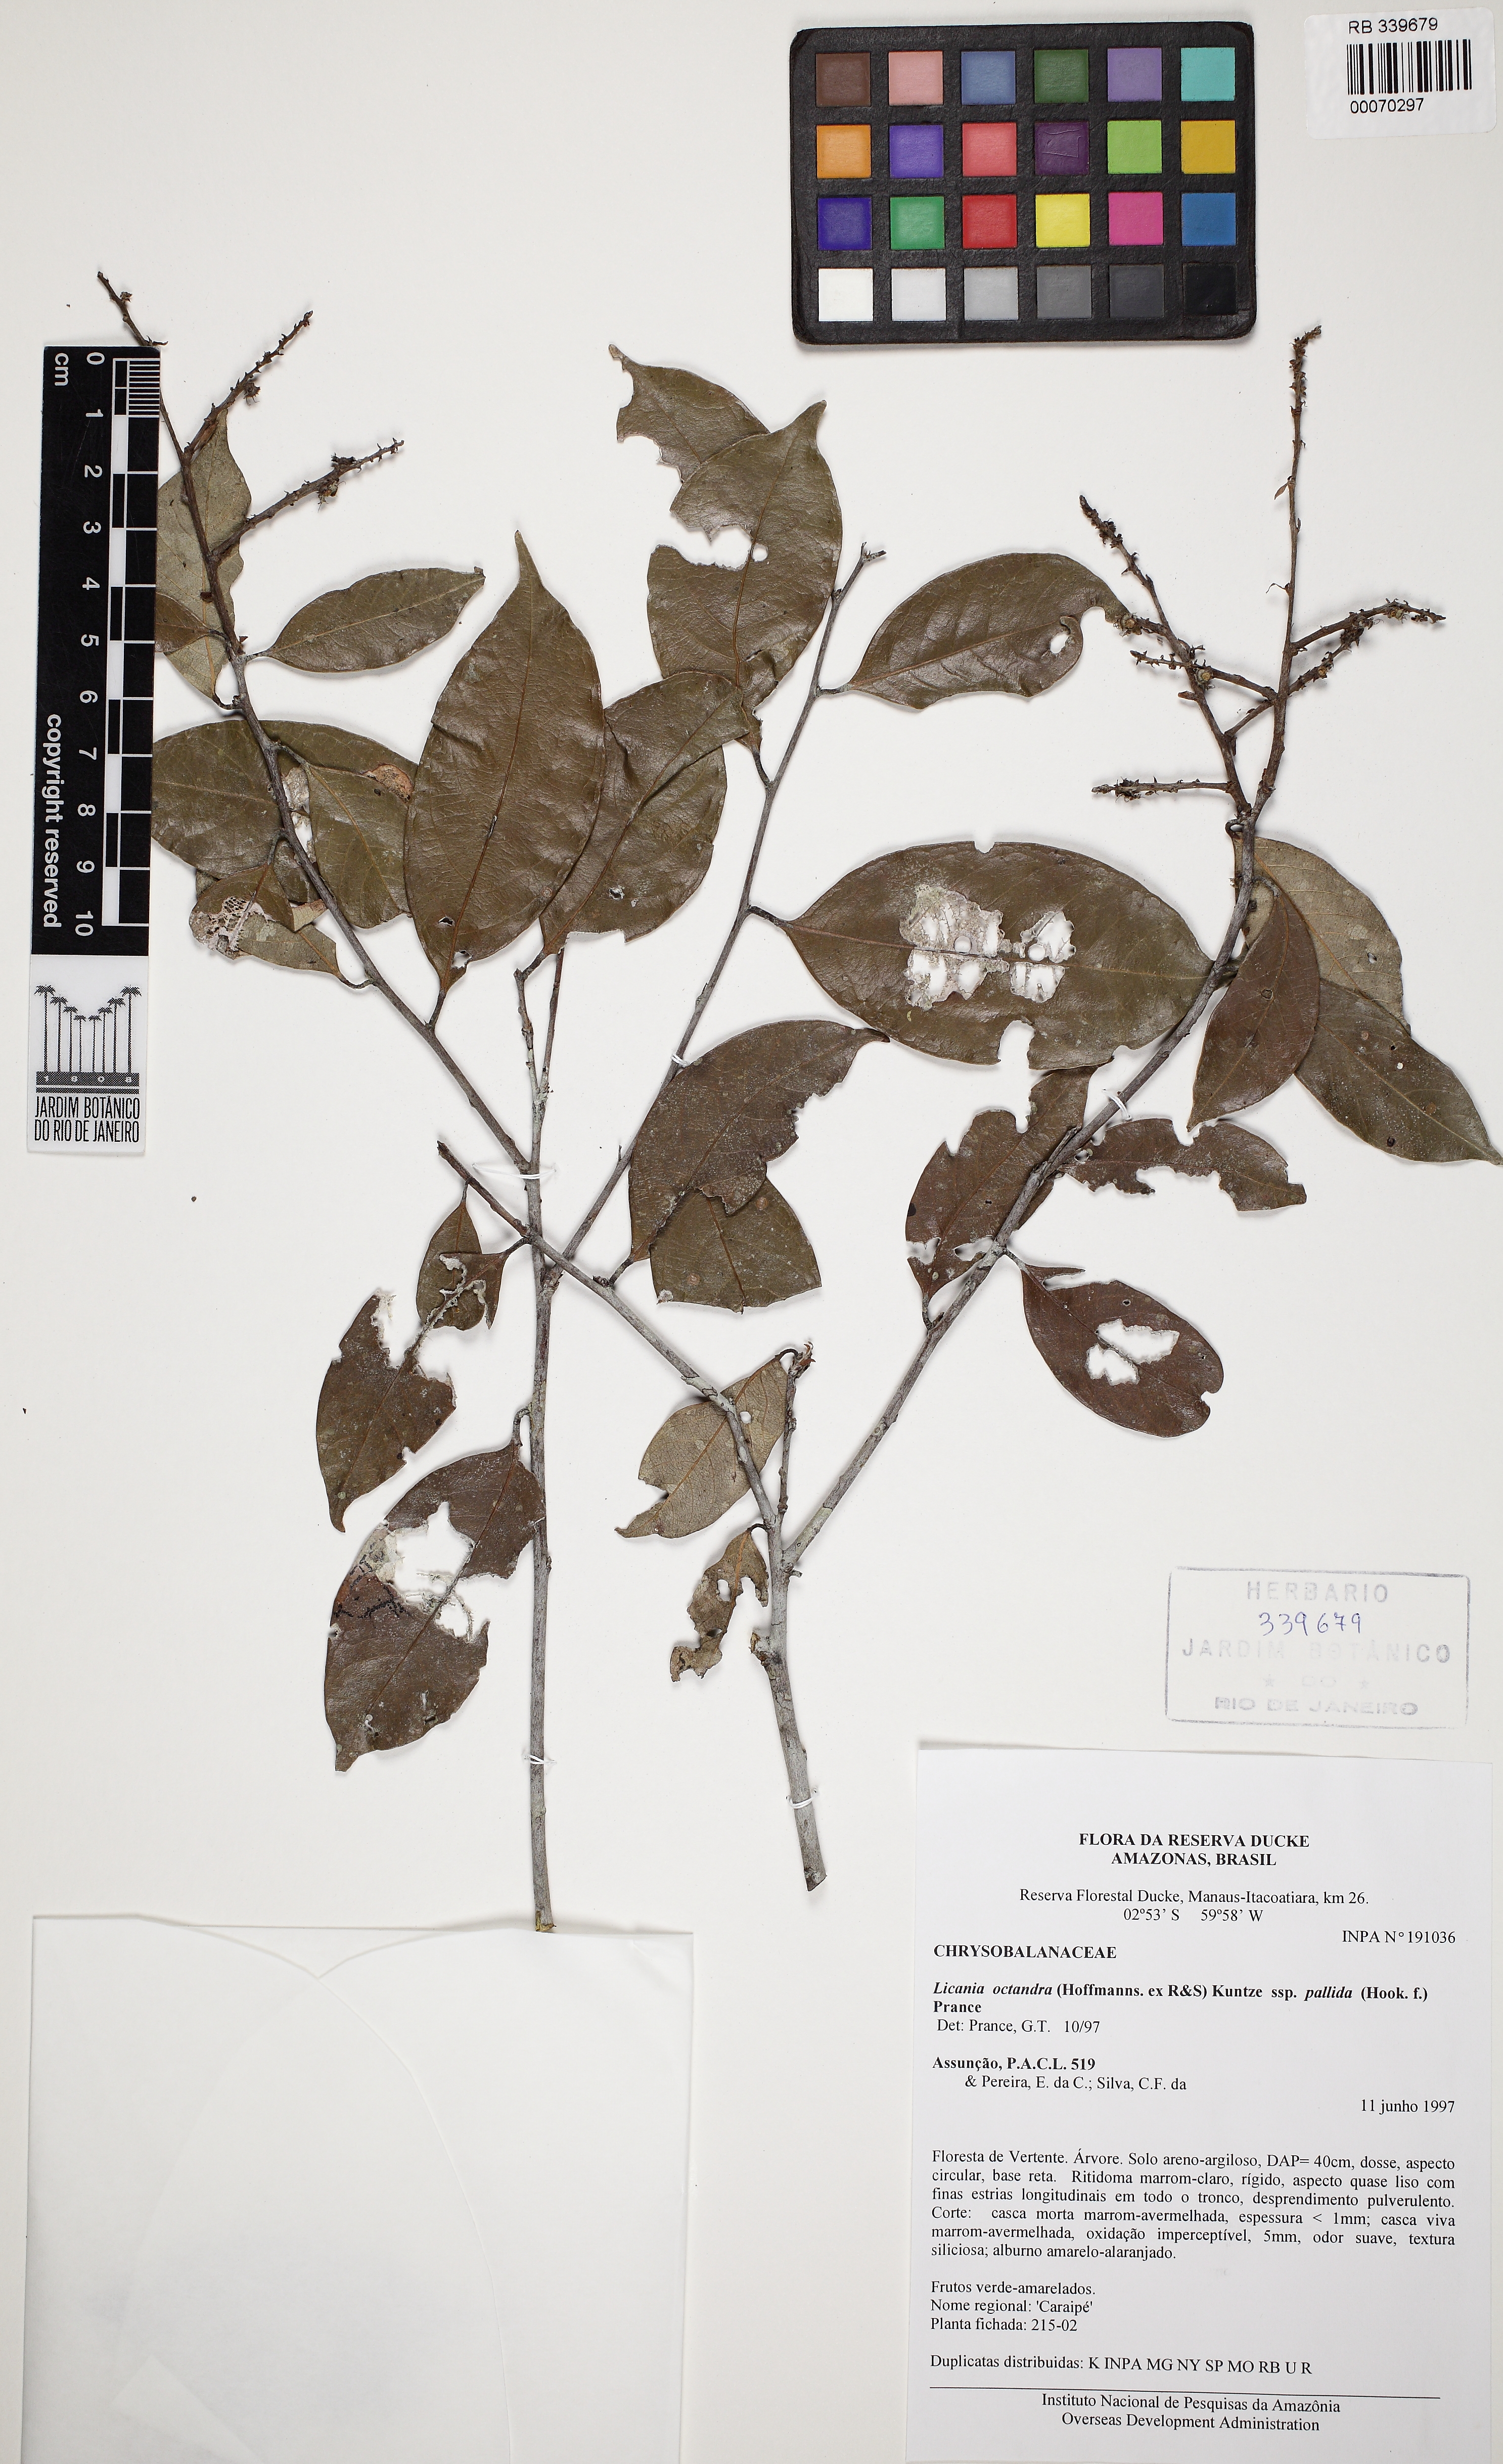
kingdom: Plantae
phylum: Tracheophyta
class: Magnoliopsida
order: Malpighiales
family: Chrysobalanaceae
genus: Leptobalanus
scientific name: Leptobalanus octandrus
